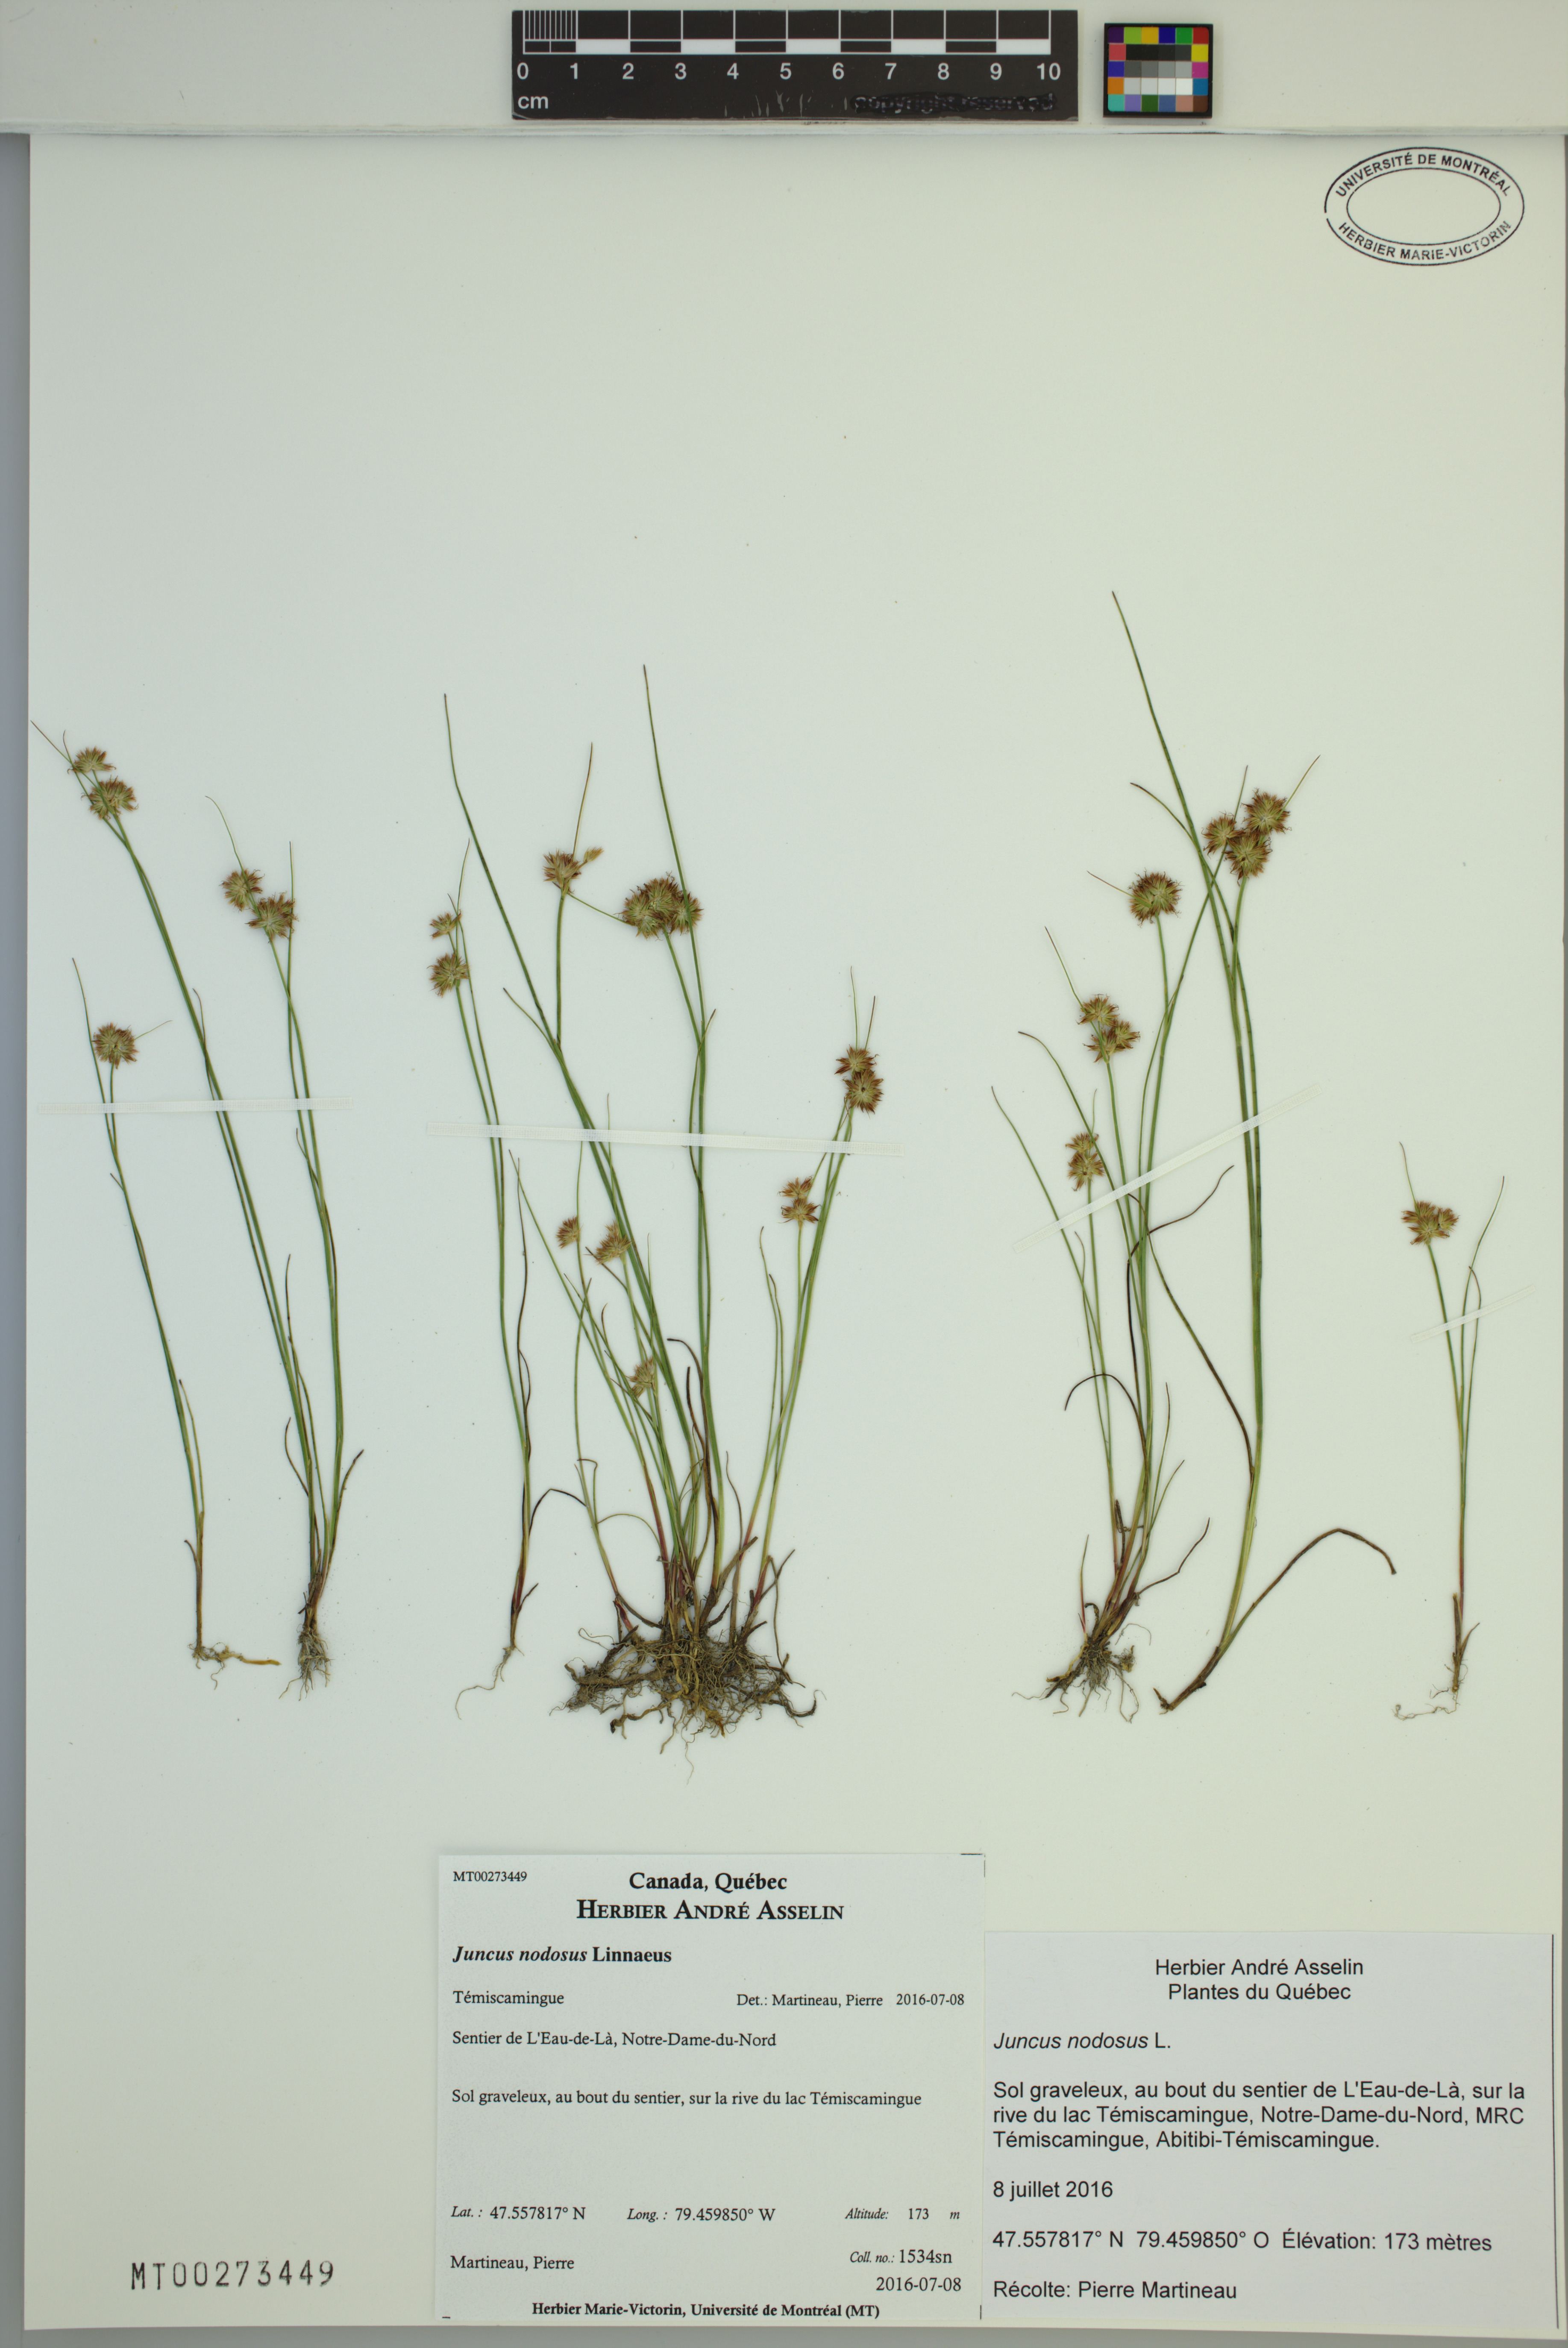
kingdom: Plantae
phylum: Tracheophyta
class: Liliopsida
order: Poales
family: Juncaceae
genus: Juncus
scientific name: Juncus nodosus
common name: Knotted rush
